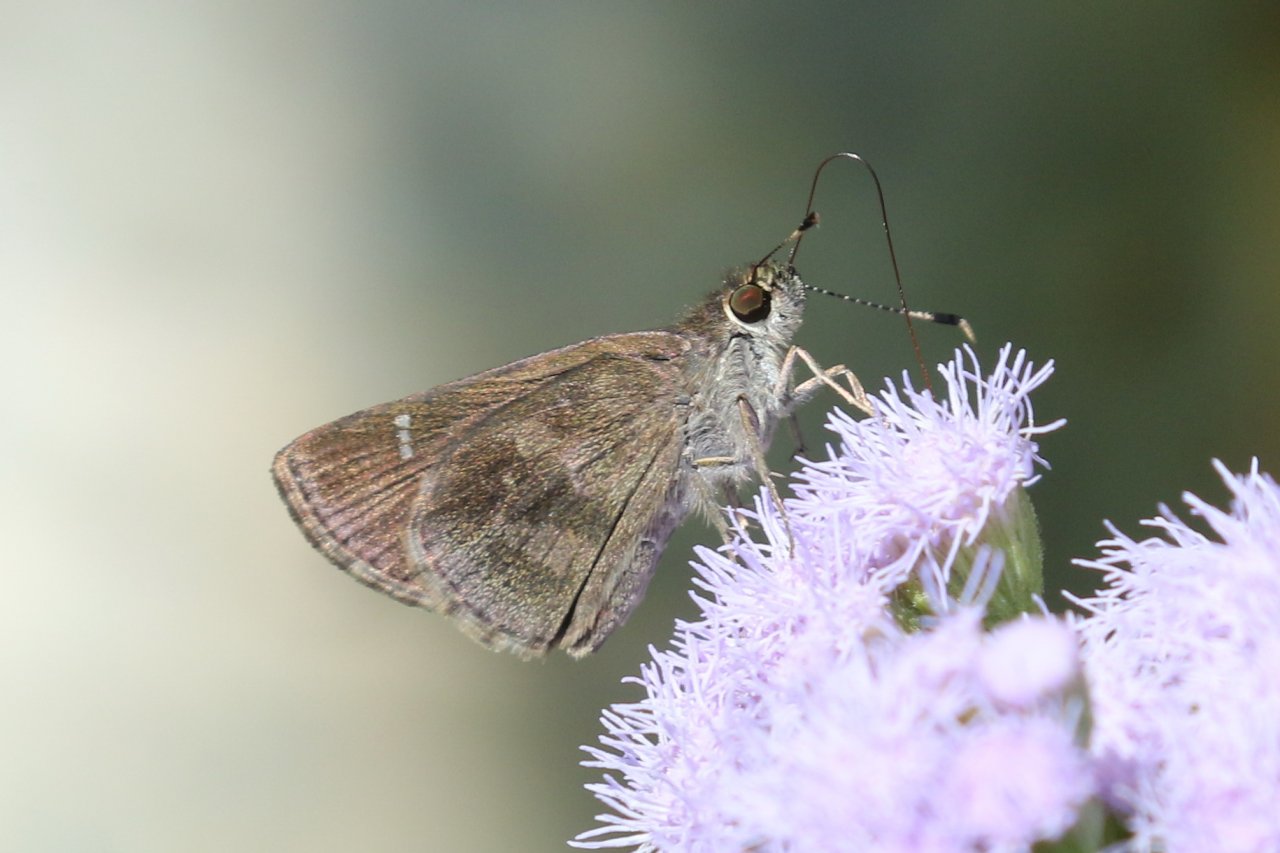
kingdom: Animalia
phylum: Arthropoda
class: Insecta
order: Lepidoptera
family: Hesperiidae
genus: Cymaenes
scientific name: Cymaenes odilia
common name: Fawn-spotted Skipper
